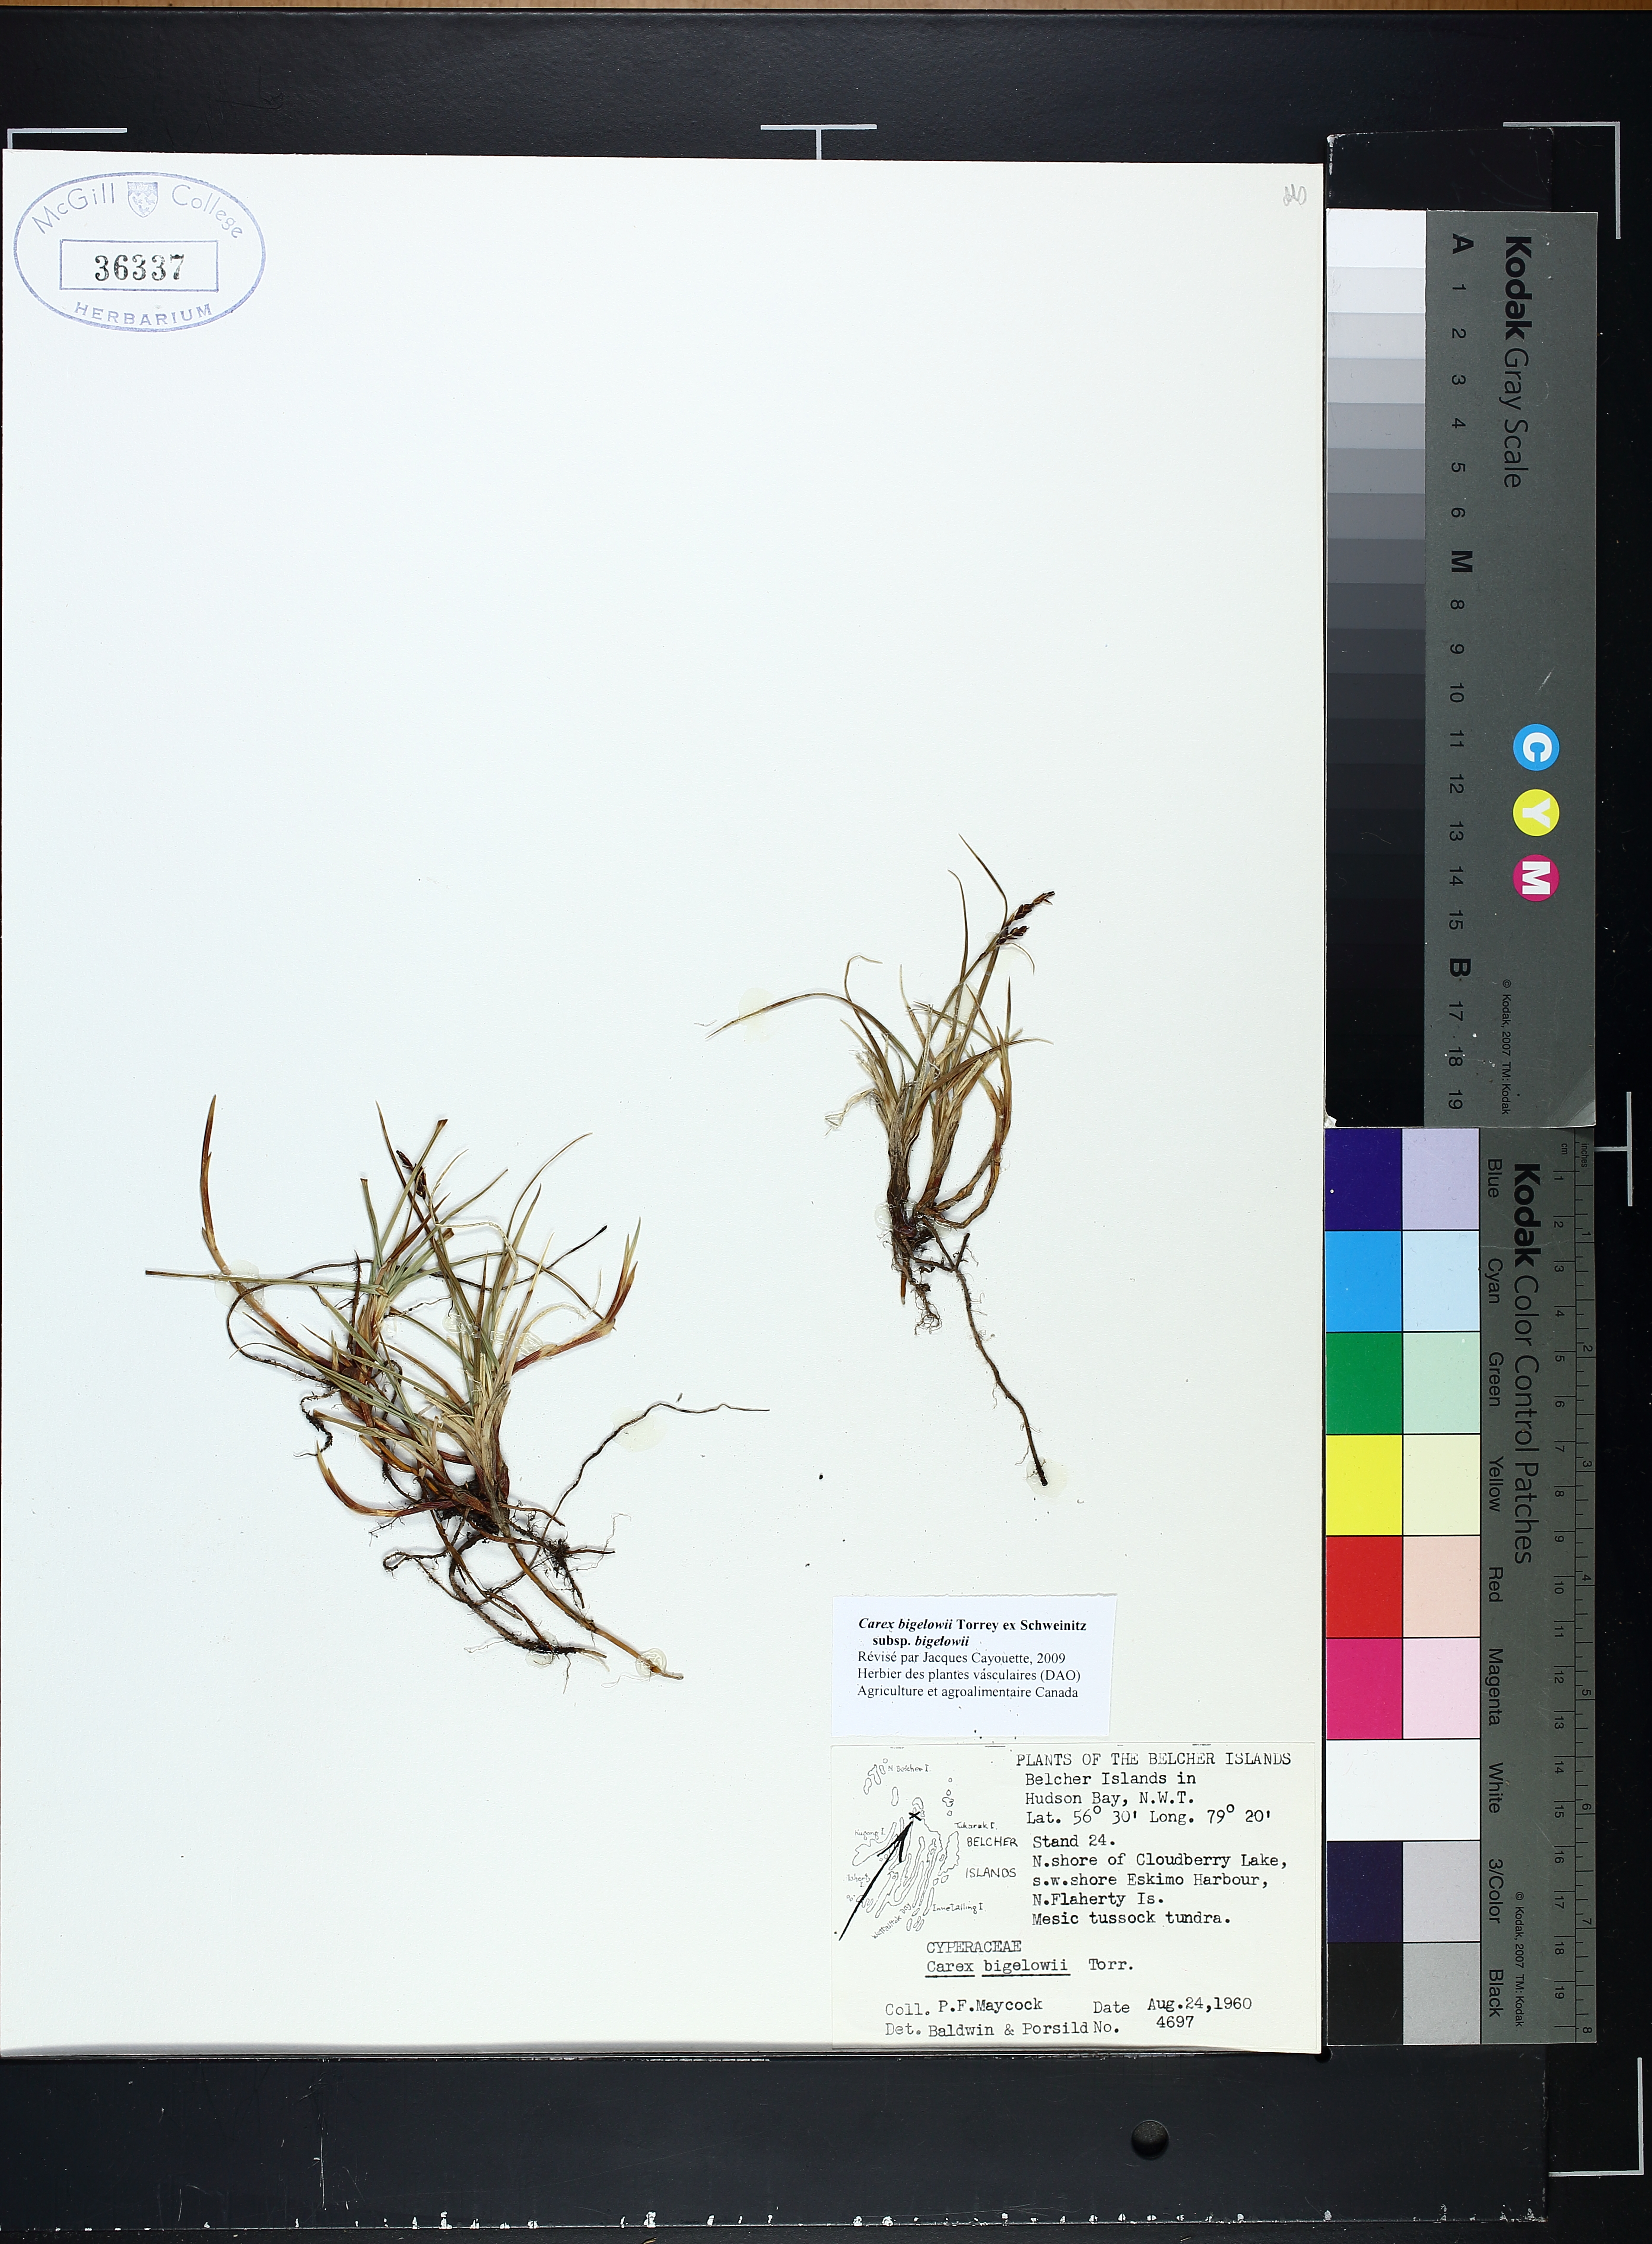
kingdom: Plantae
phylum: Tracheophyta
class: Liliopsida
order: Poales
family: Cyperaceae
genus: Carex
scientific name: Carex bigelowii
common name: Stiff sedge
